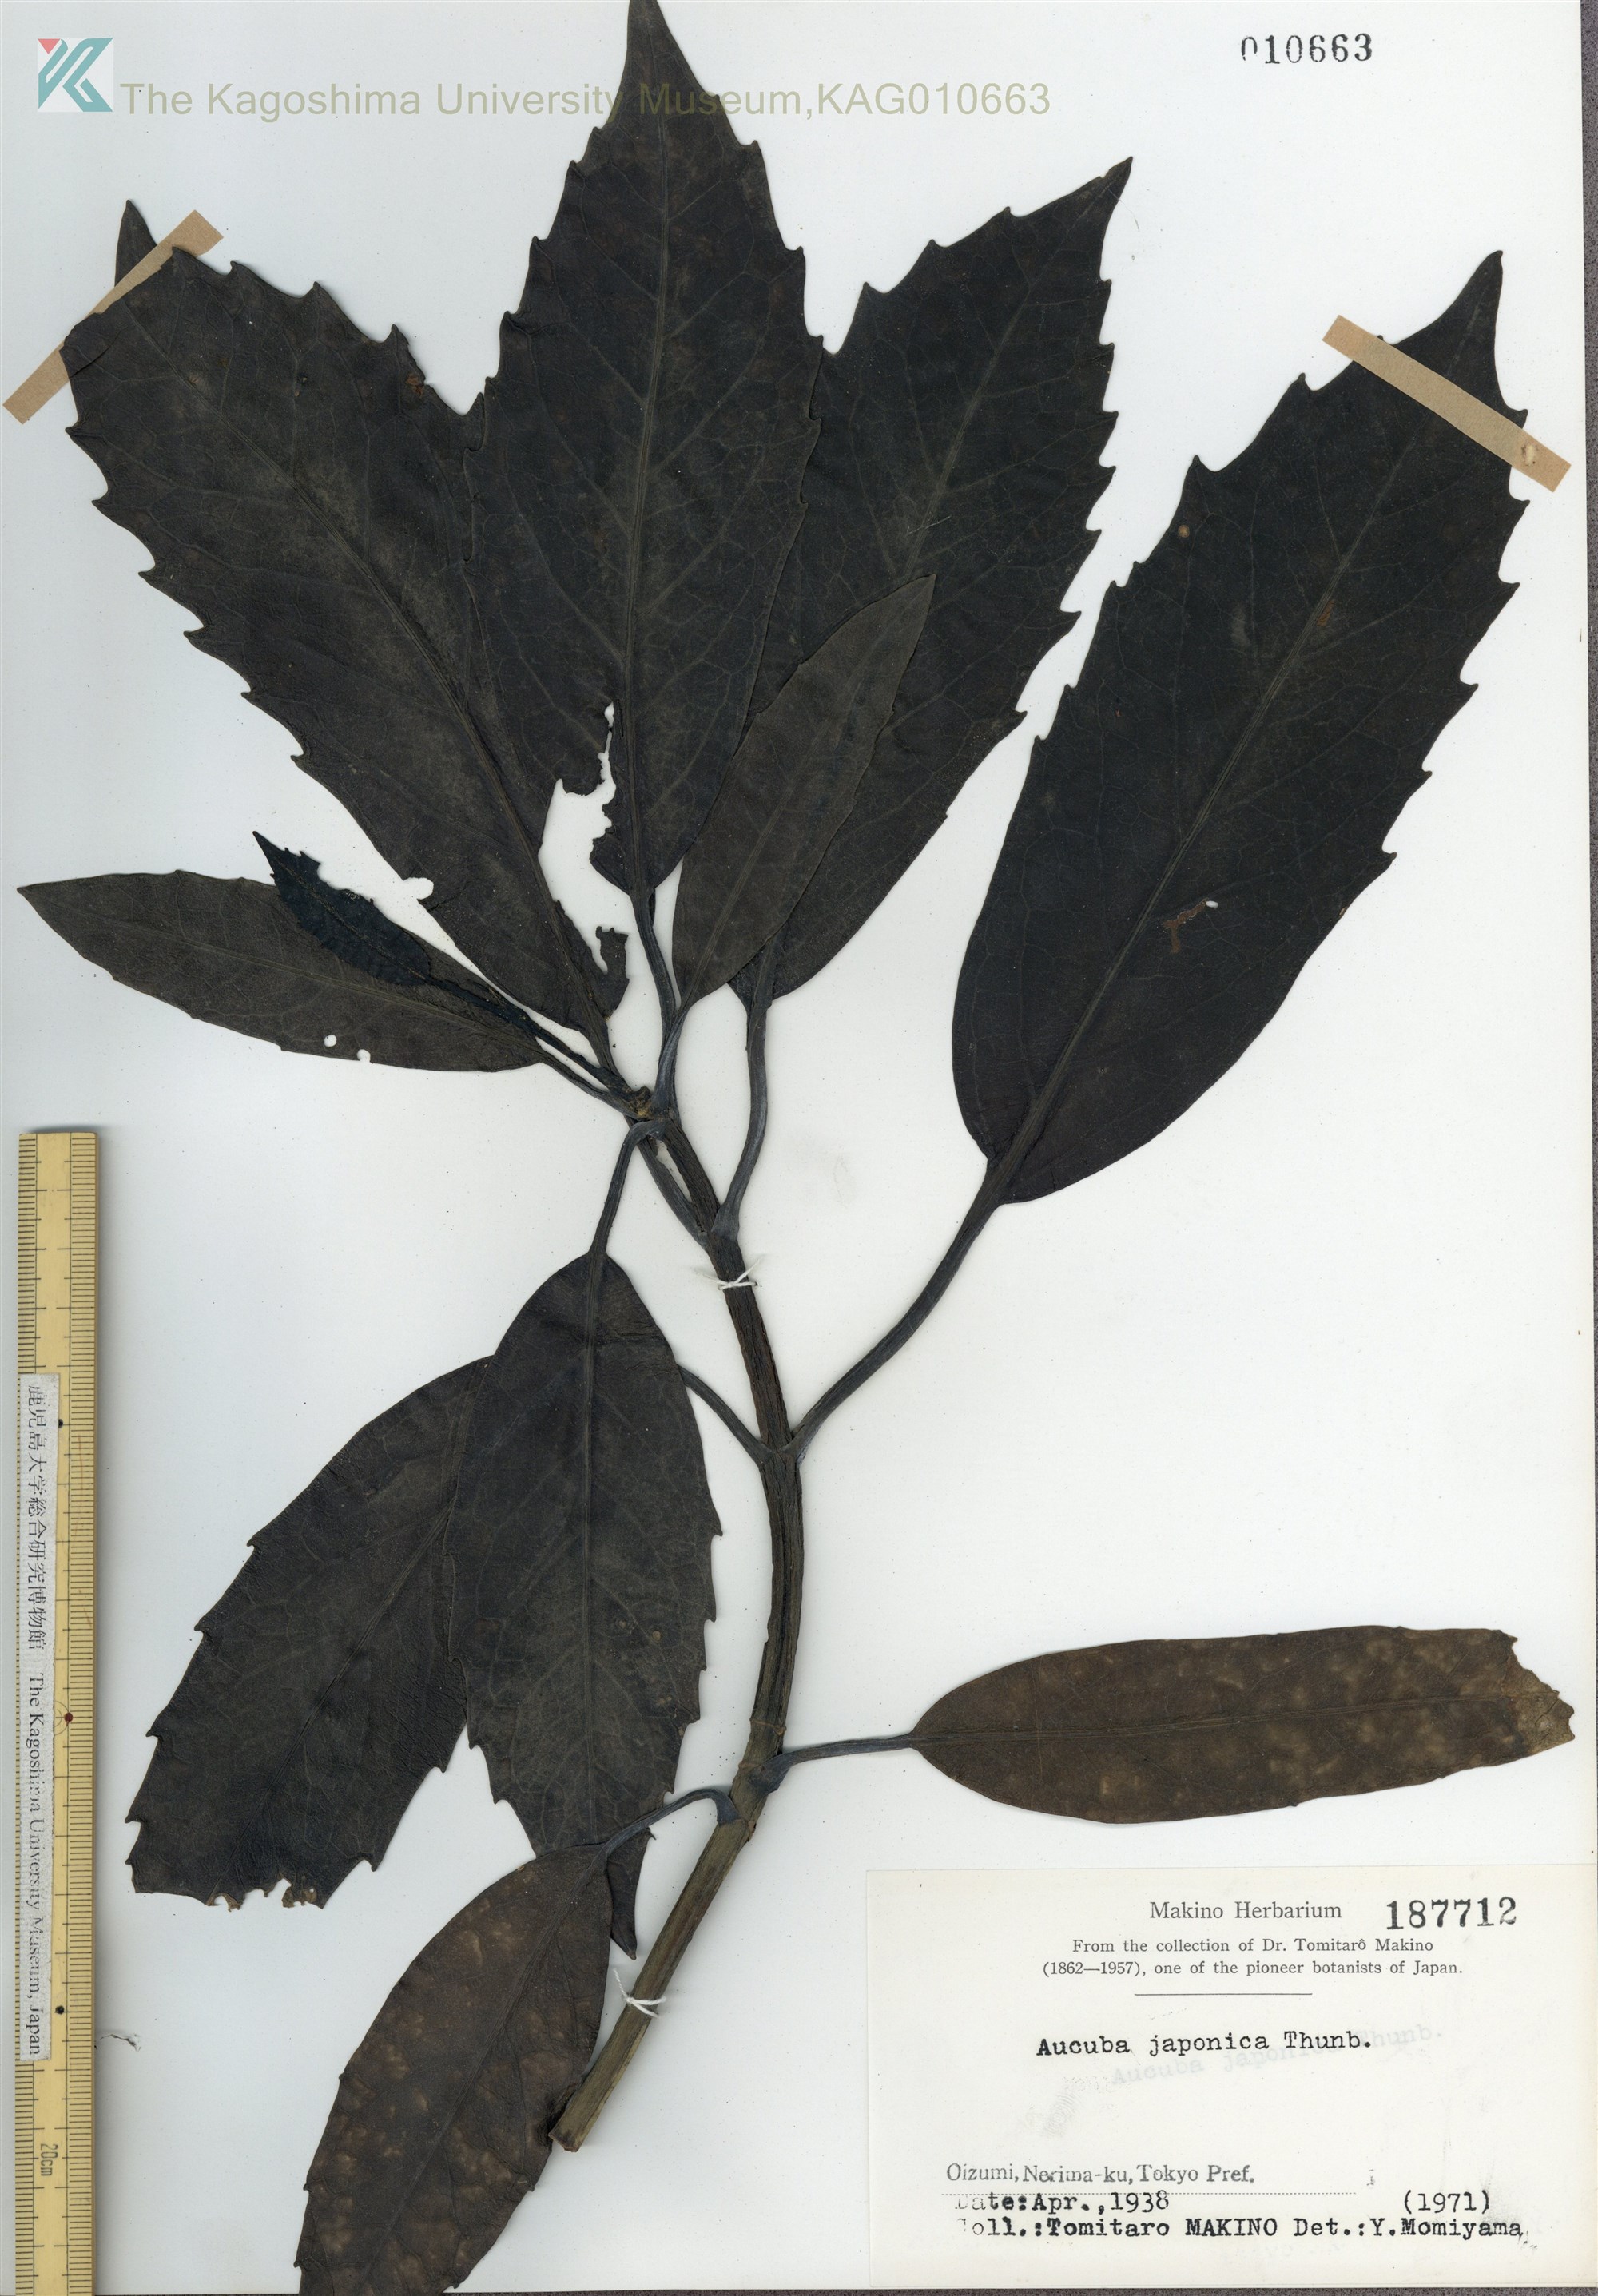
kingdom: Plantae
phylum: Tracheophyta
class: Magnoliopsida
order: Garryales
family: Garryaceae
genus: Aucuba
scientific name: Aucuba japonica
